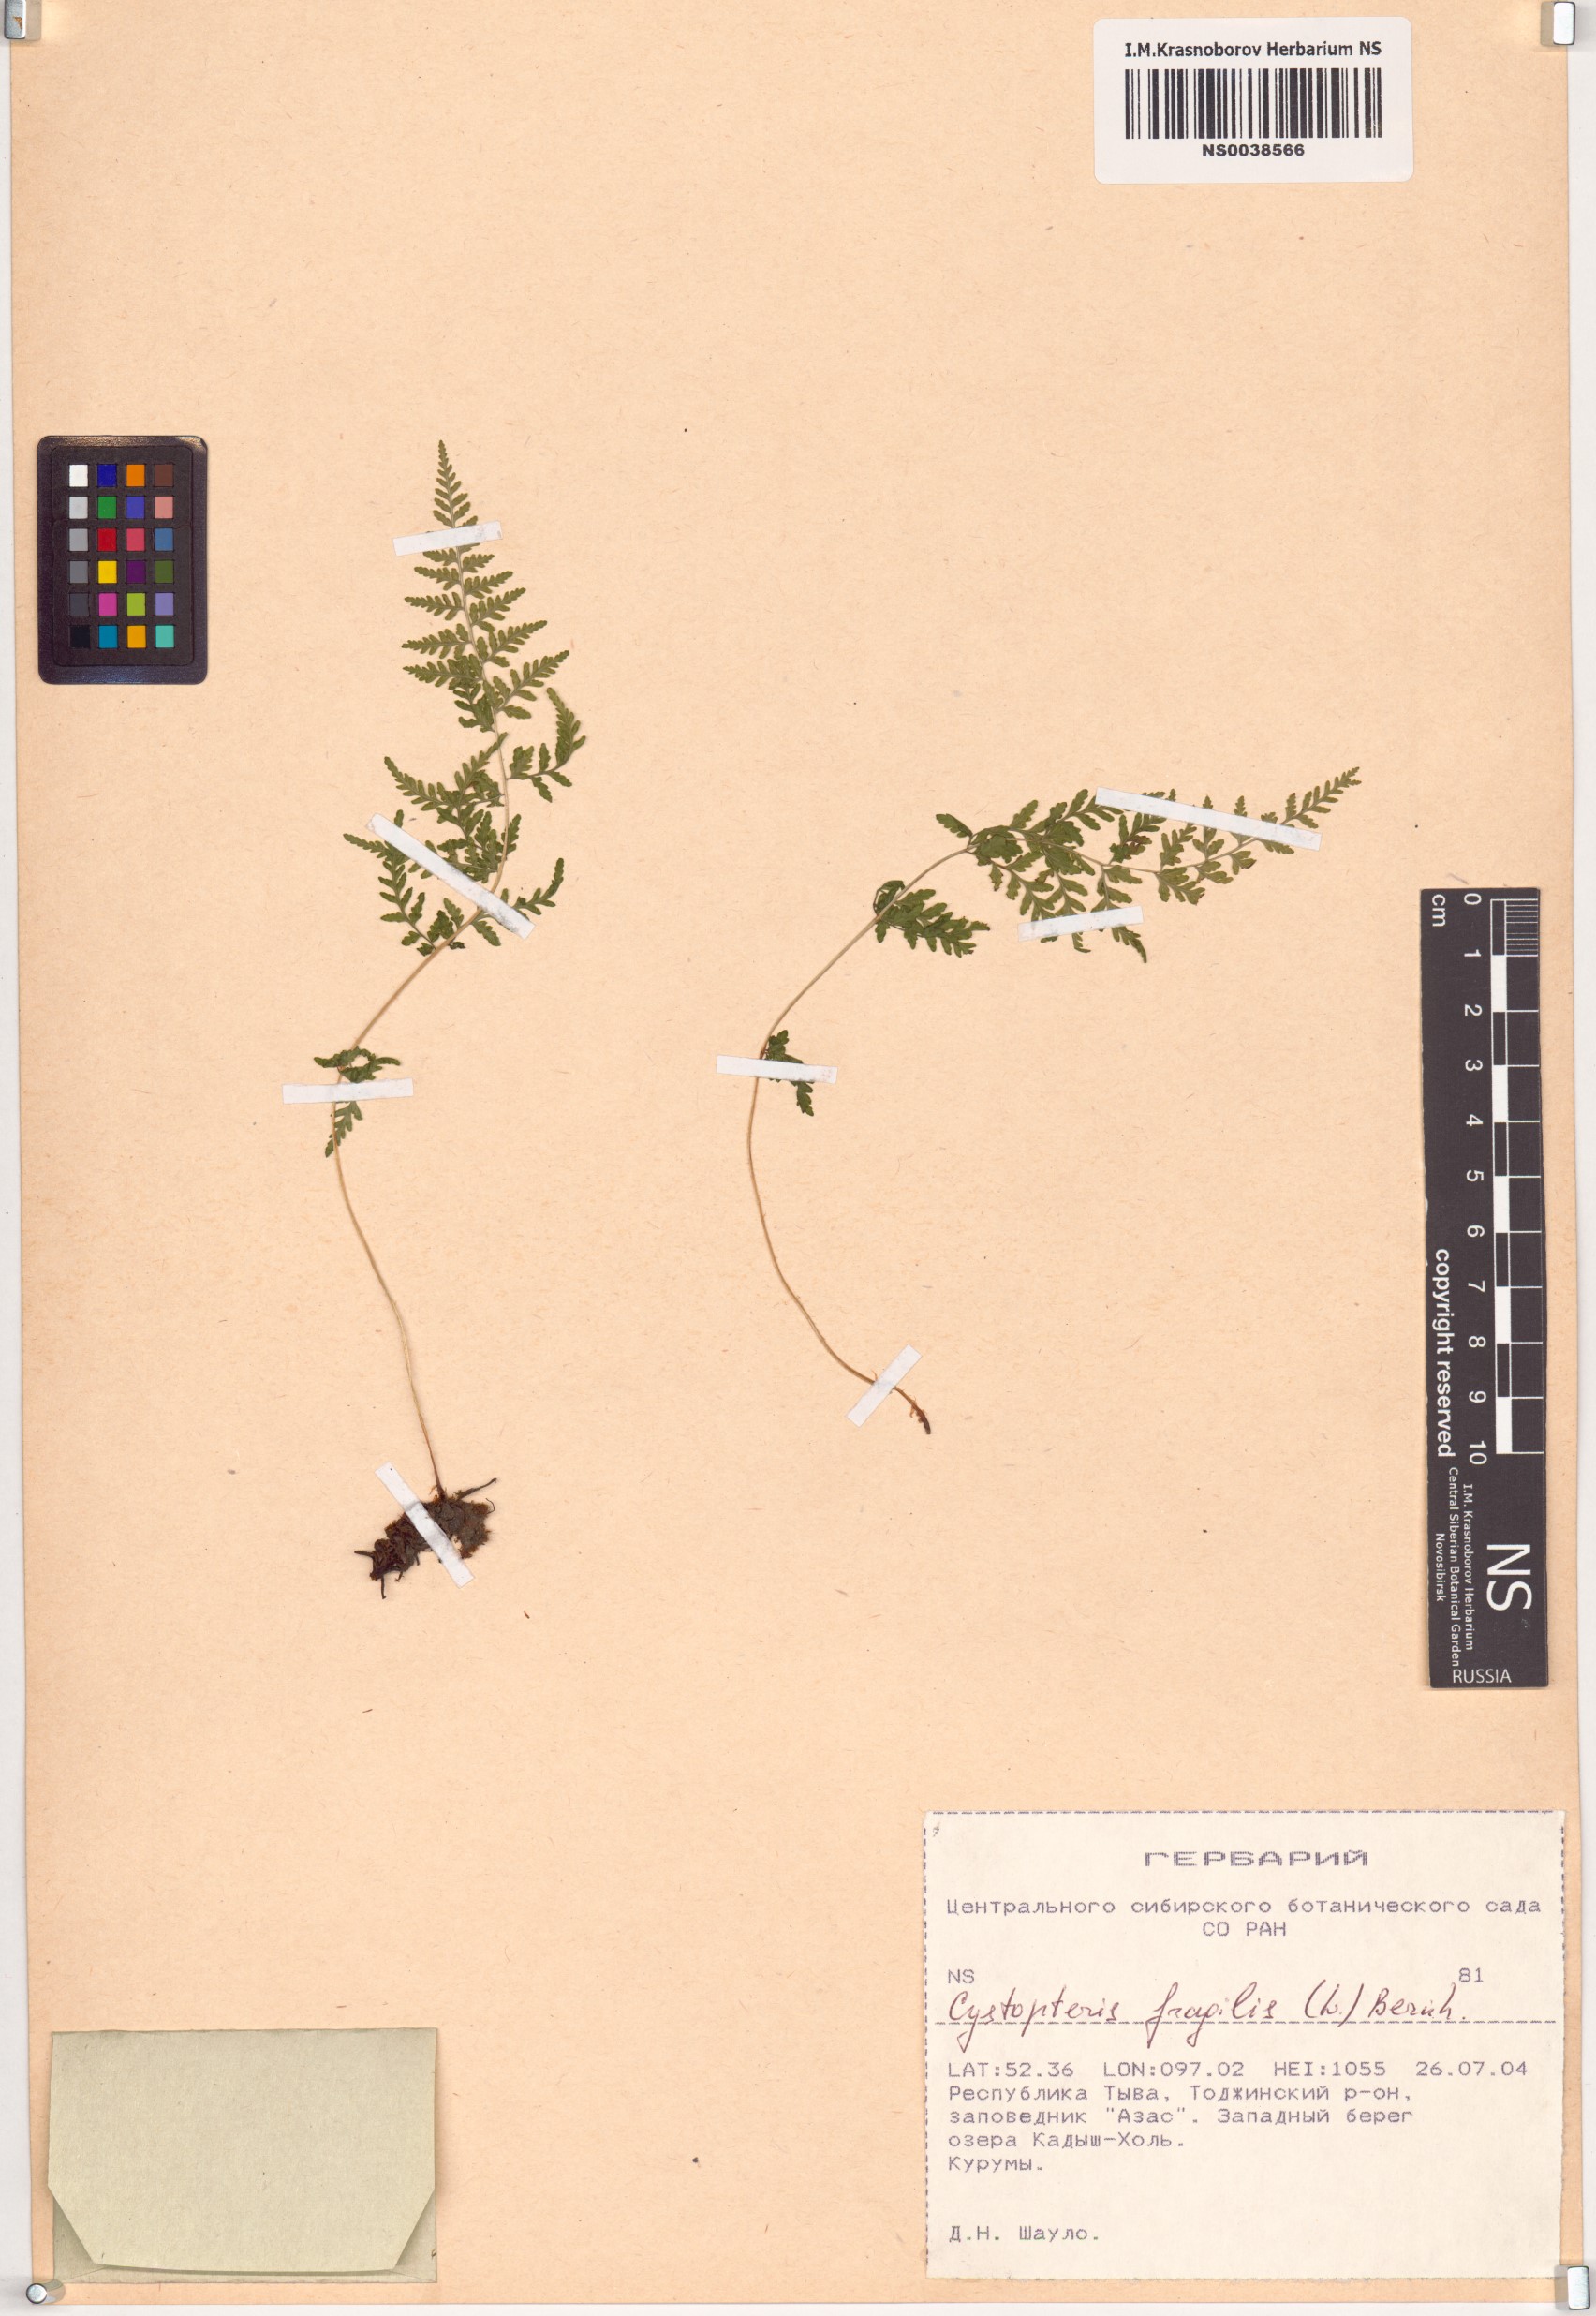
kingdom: Plantae
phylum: Tracheophyta
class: Polypodiopsida
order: Polypodiales
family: Cystopteridaceae
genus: Cystopteris
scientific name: Cystopteris fragilis
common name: Brittle bladder fern
